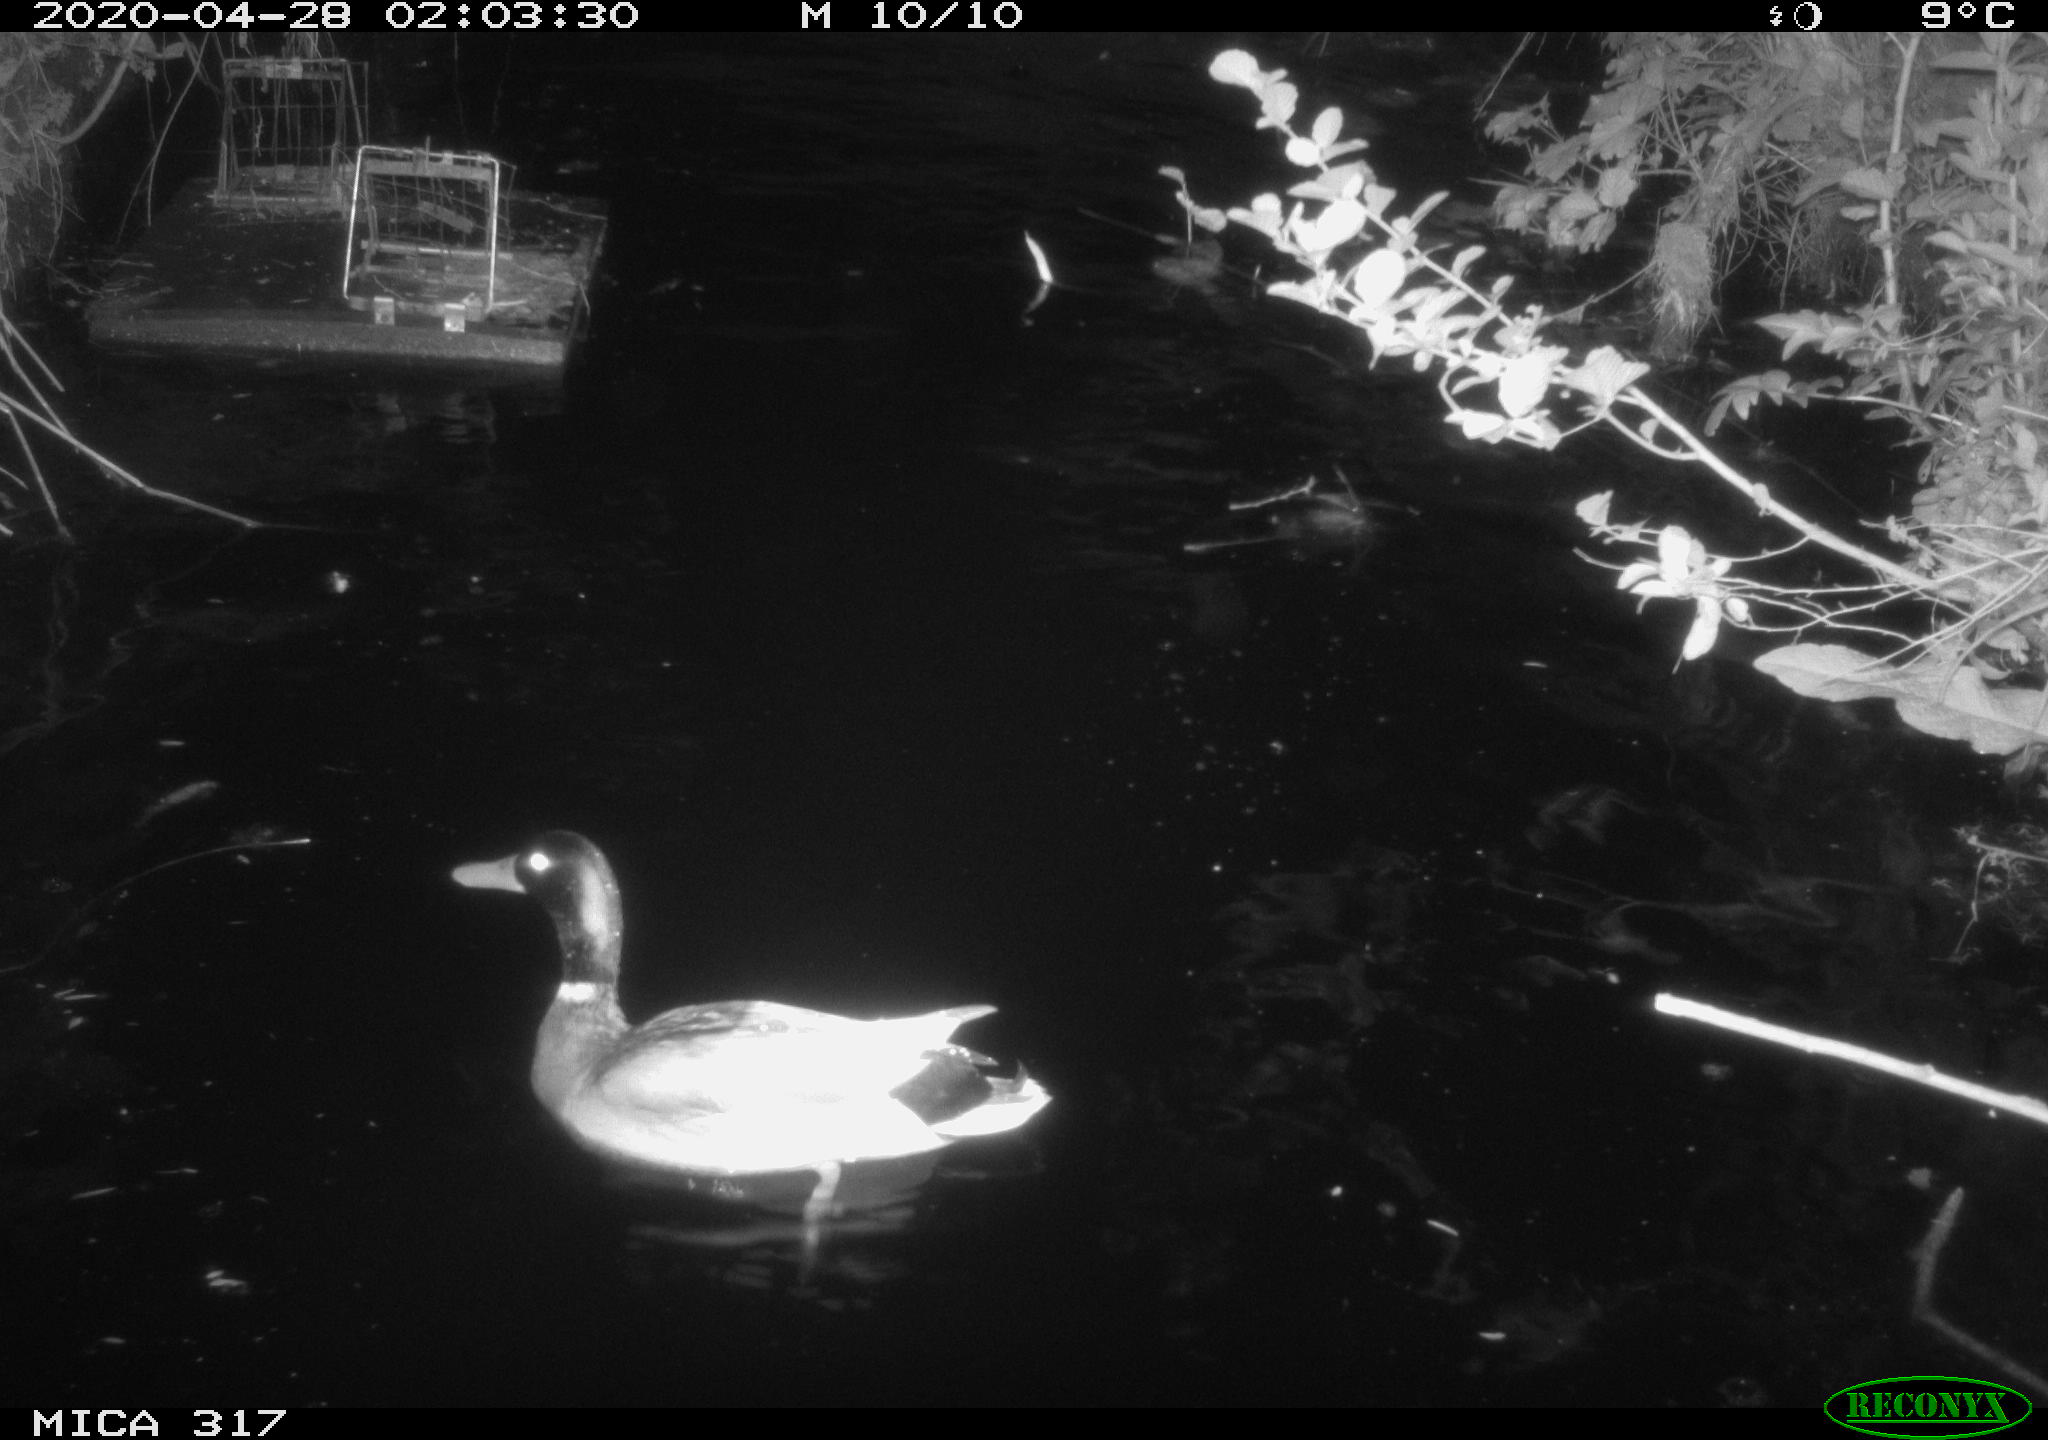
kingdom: Animalia
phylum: Chordata
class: Aves
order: Anseriformes
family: Anatidae
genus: Mareca
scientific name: Mareca strepera
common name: Gadwall
